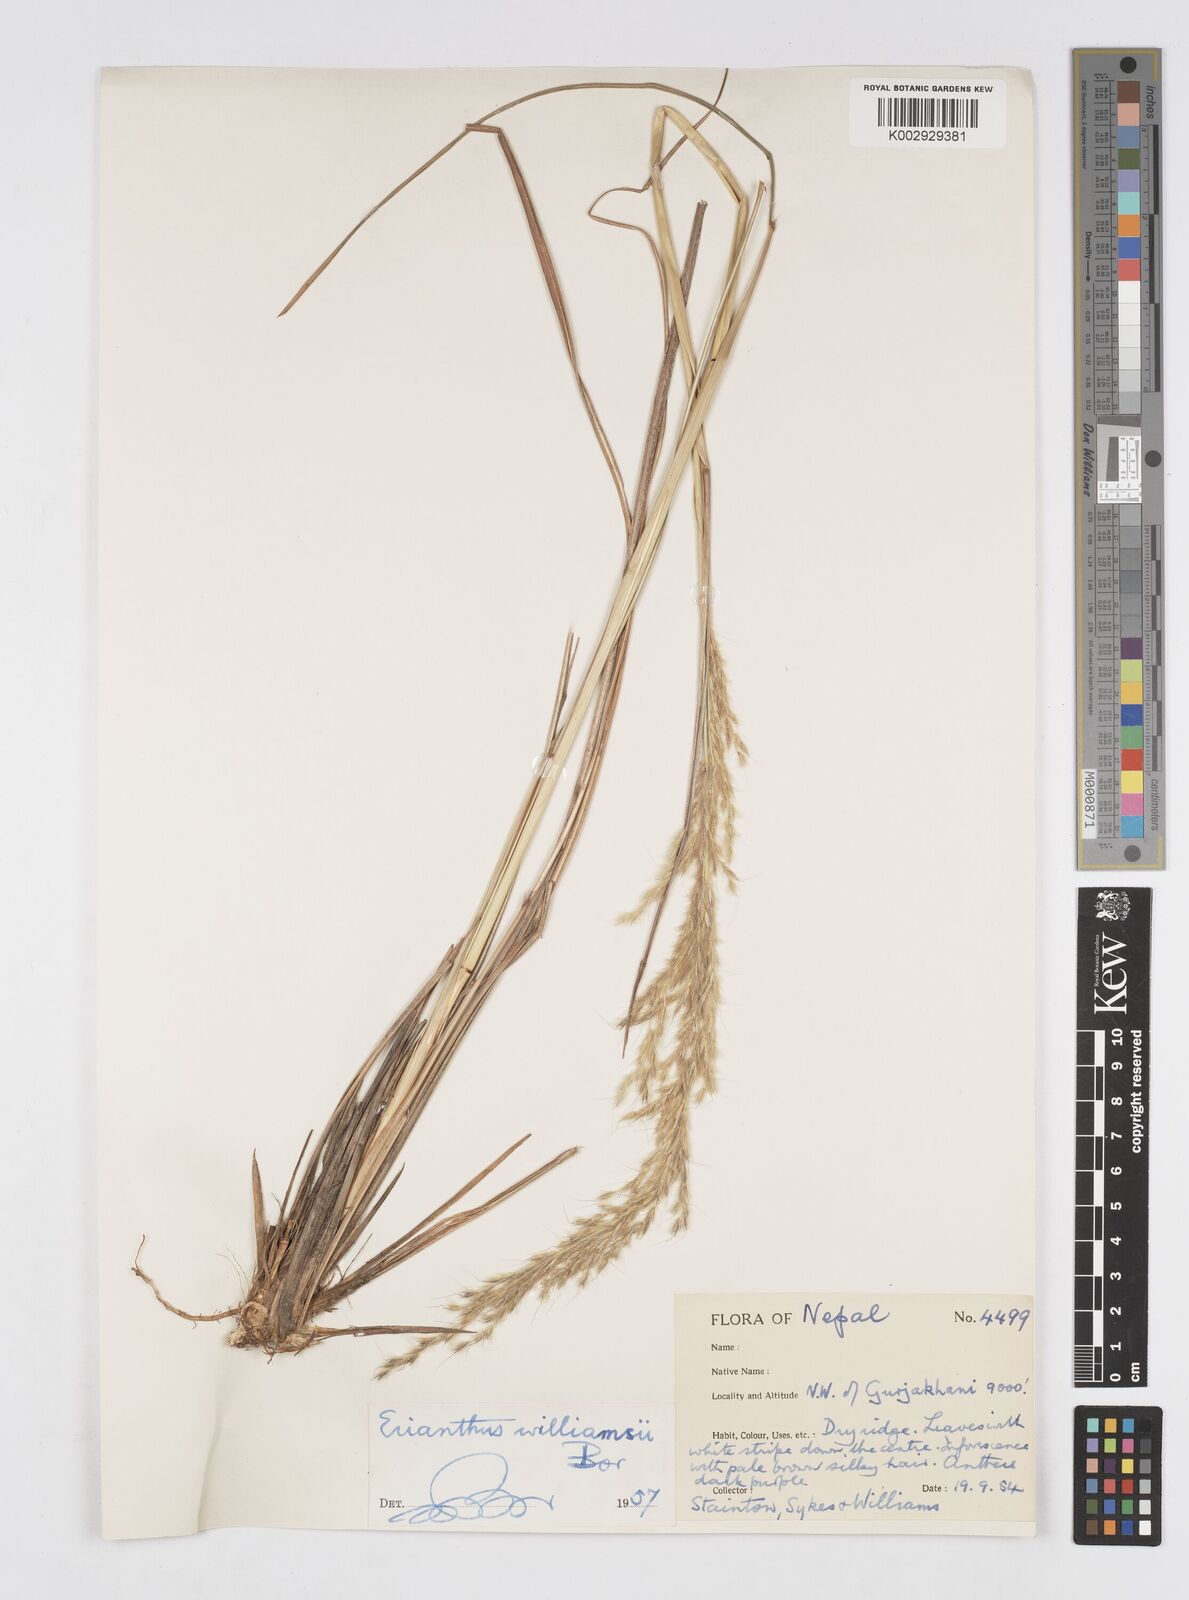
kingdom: Plantae
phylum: Tracheophyta
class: Liliopsida
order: Poales
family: Poaceae
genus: Saccharum
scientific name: Saccharum williamsii
